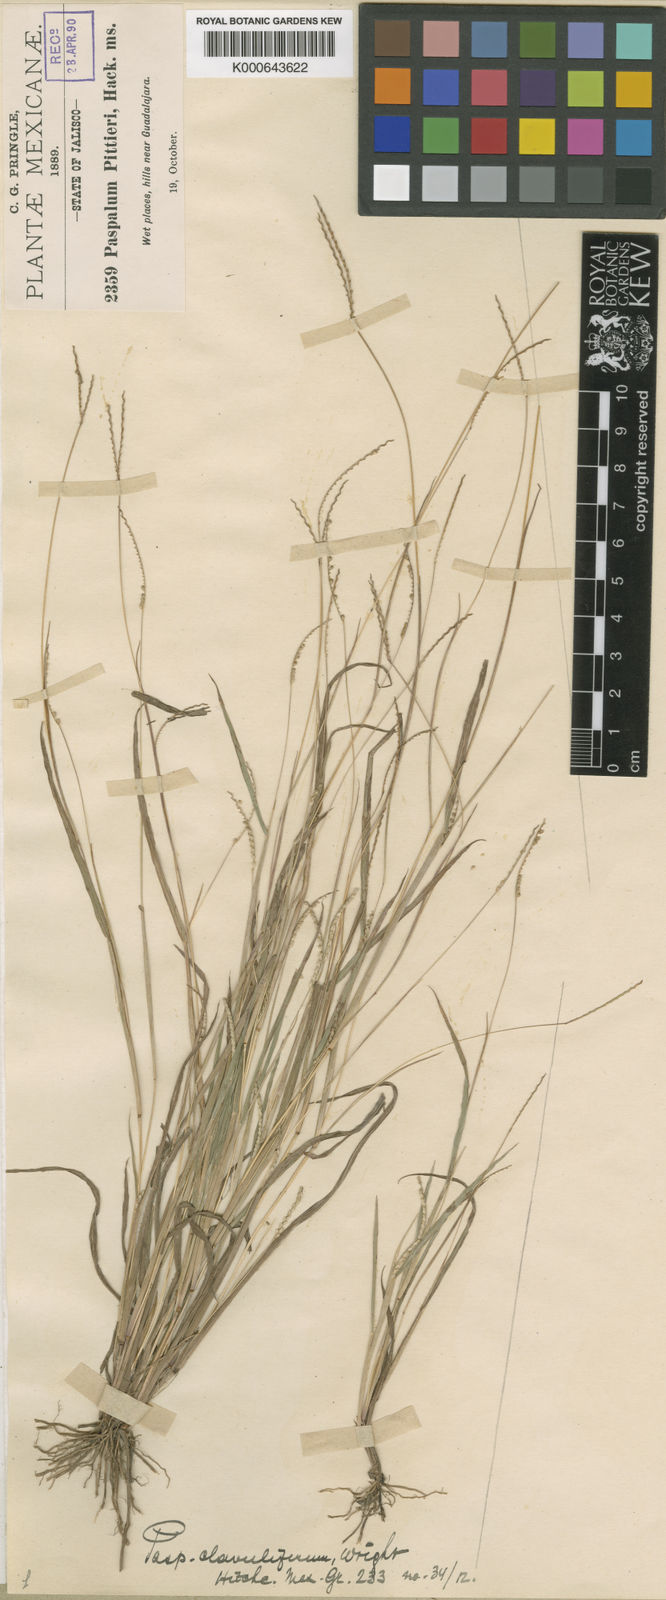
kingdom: Plantae
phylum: Tracheophyta
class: Liliopsida
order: Poales
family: Poaceae
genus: Paspalum
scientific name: Paspalum clavuliferum
